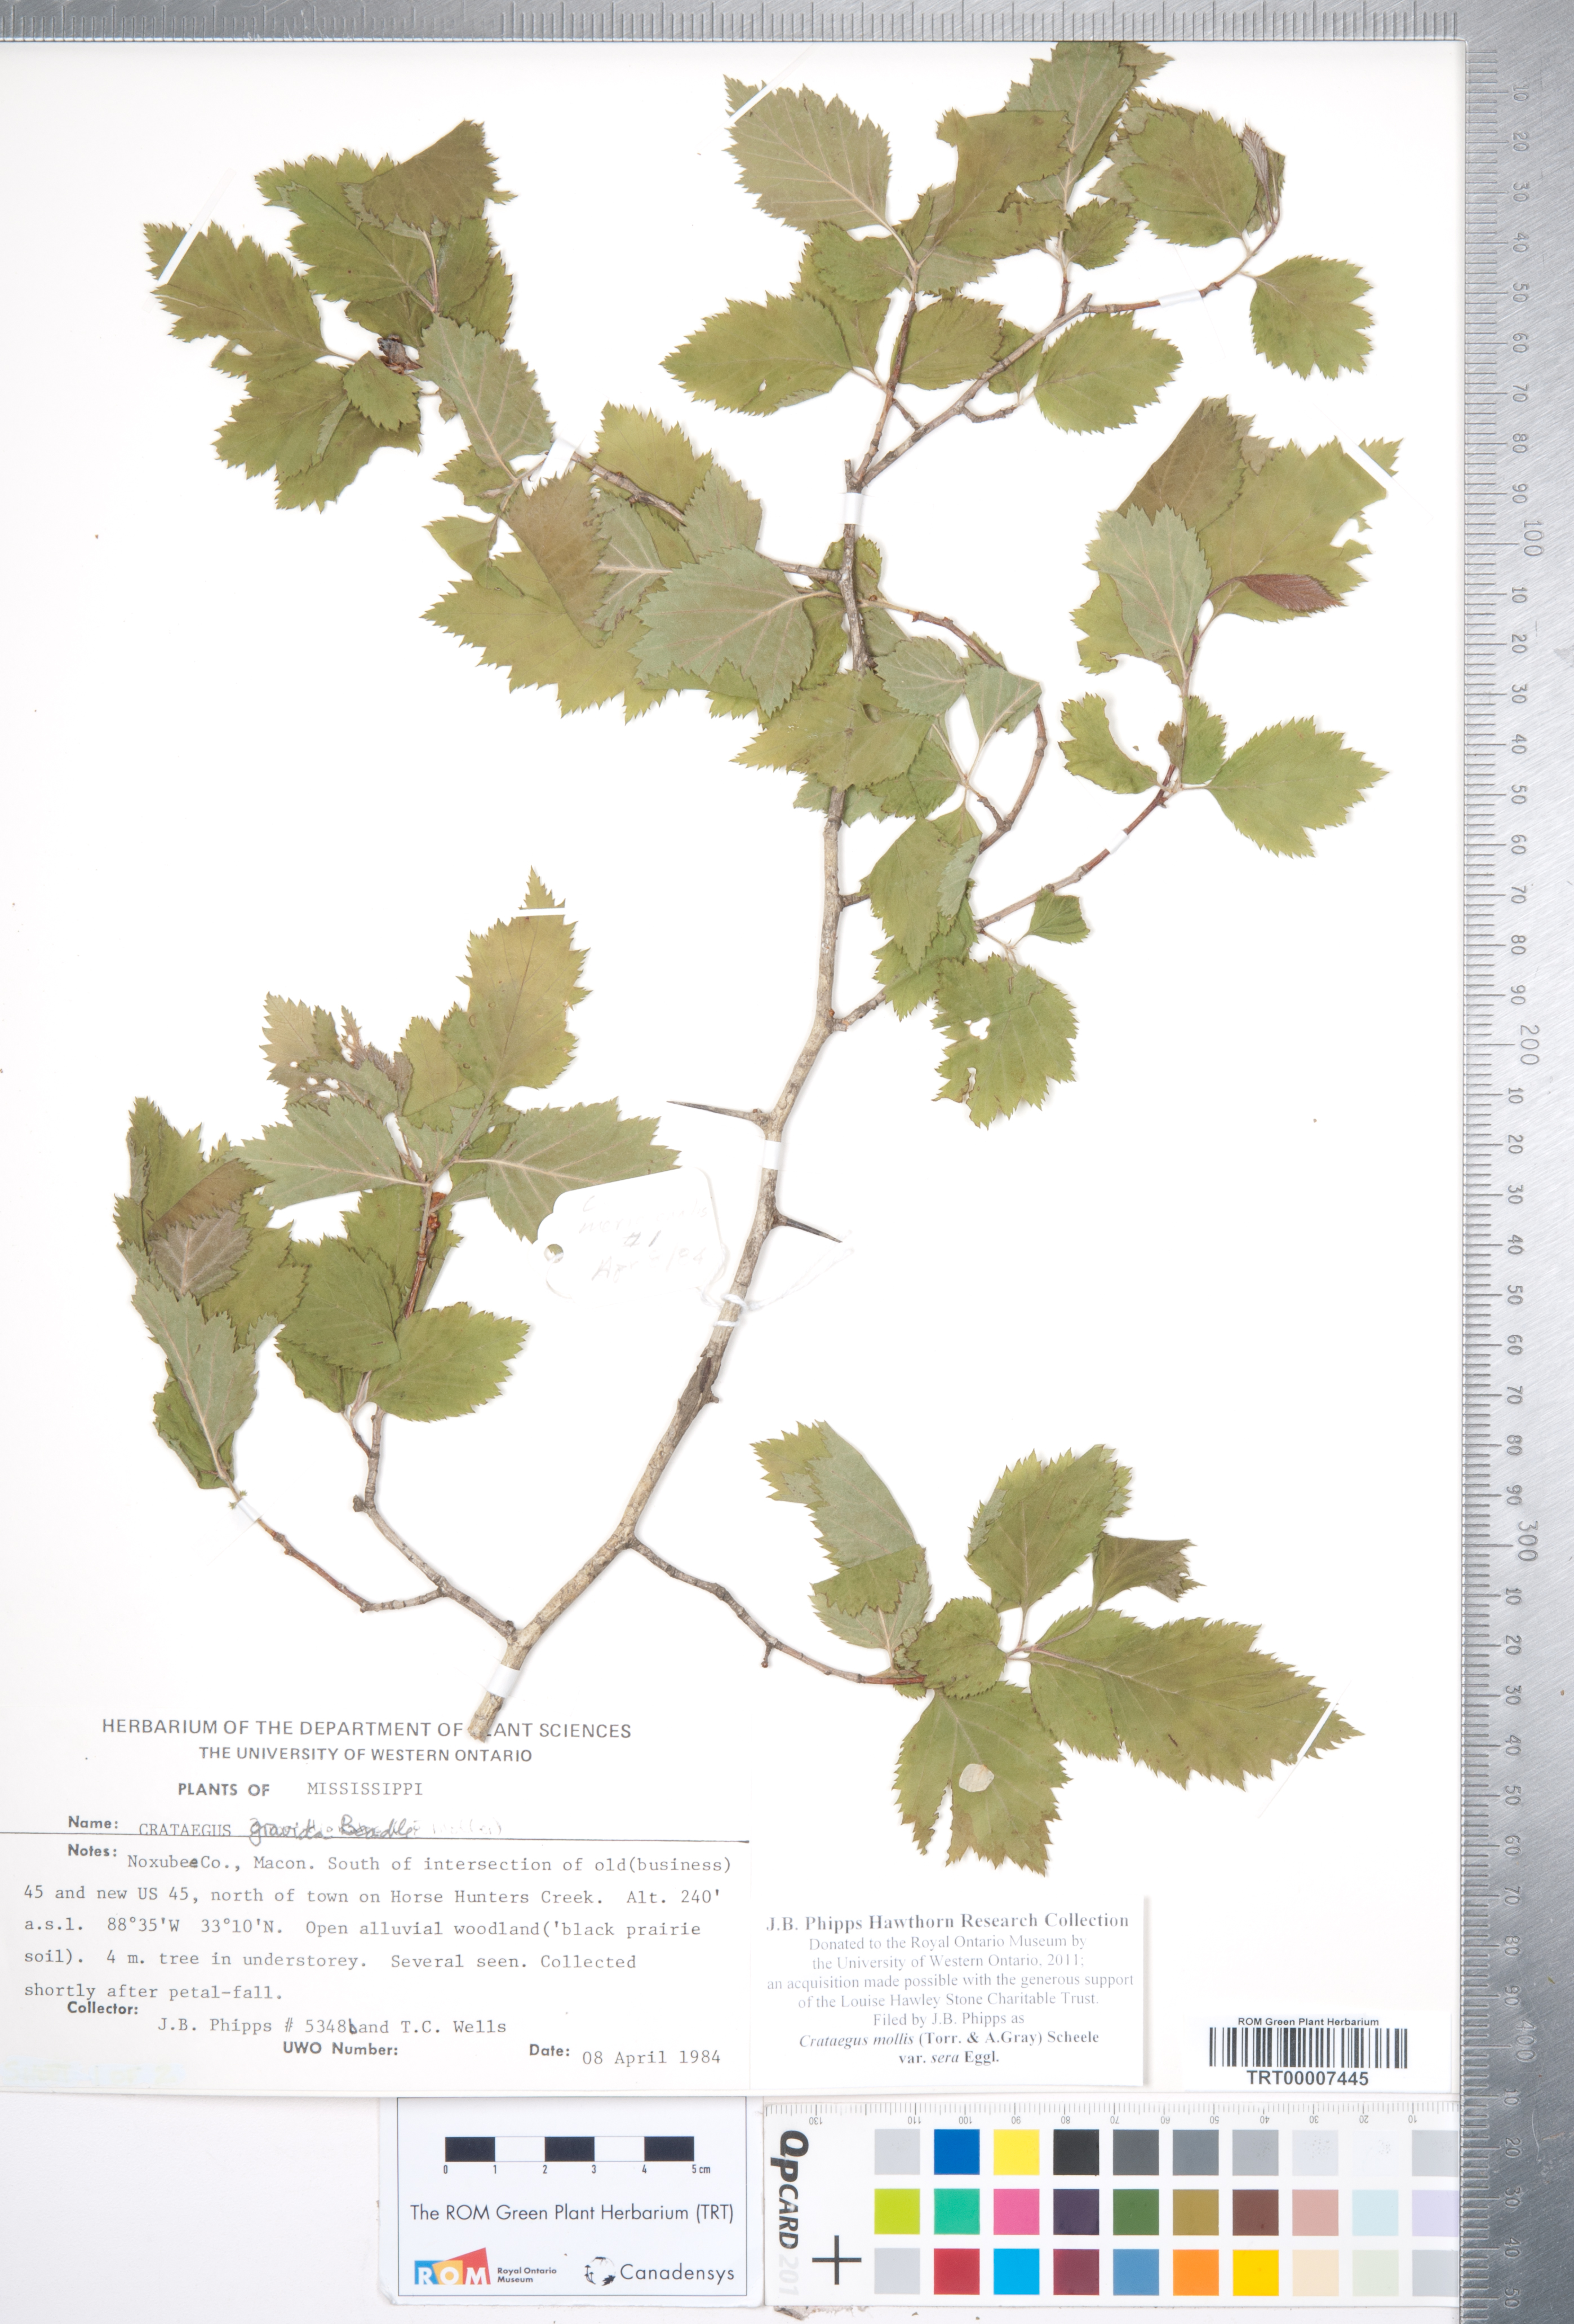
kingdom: Plantae
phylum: Tracheophyta
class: Magnoliopsida
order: Rosales
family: Rosaceae
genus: Crataegus
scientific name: Crataegus mollis
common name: Downy hawthorn
